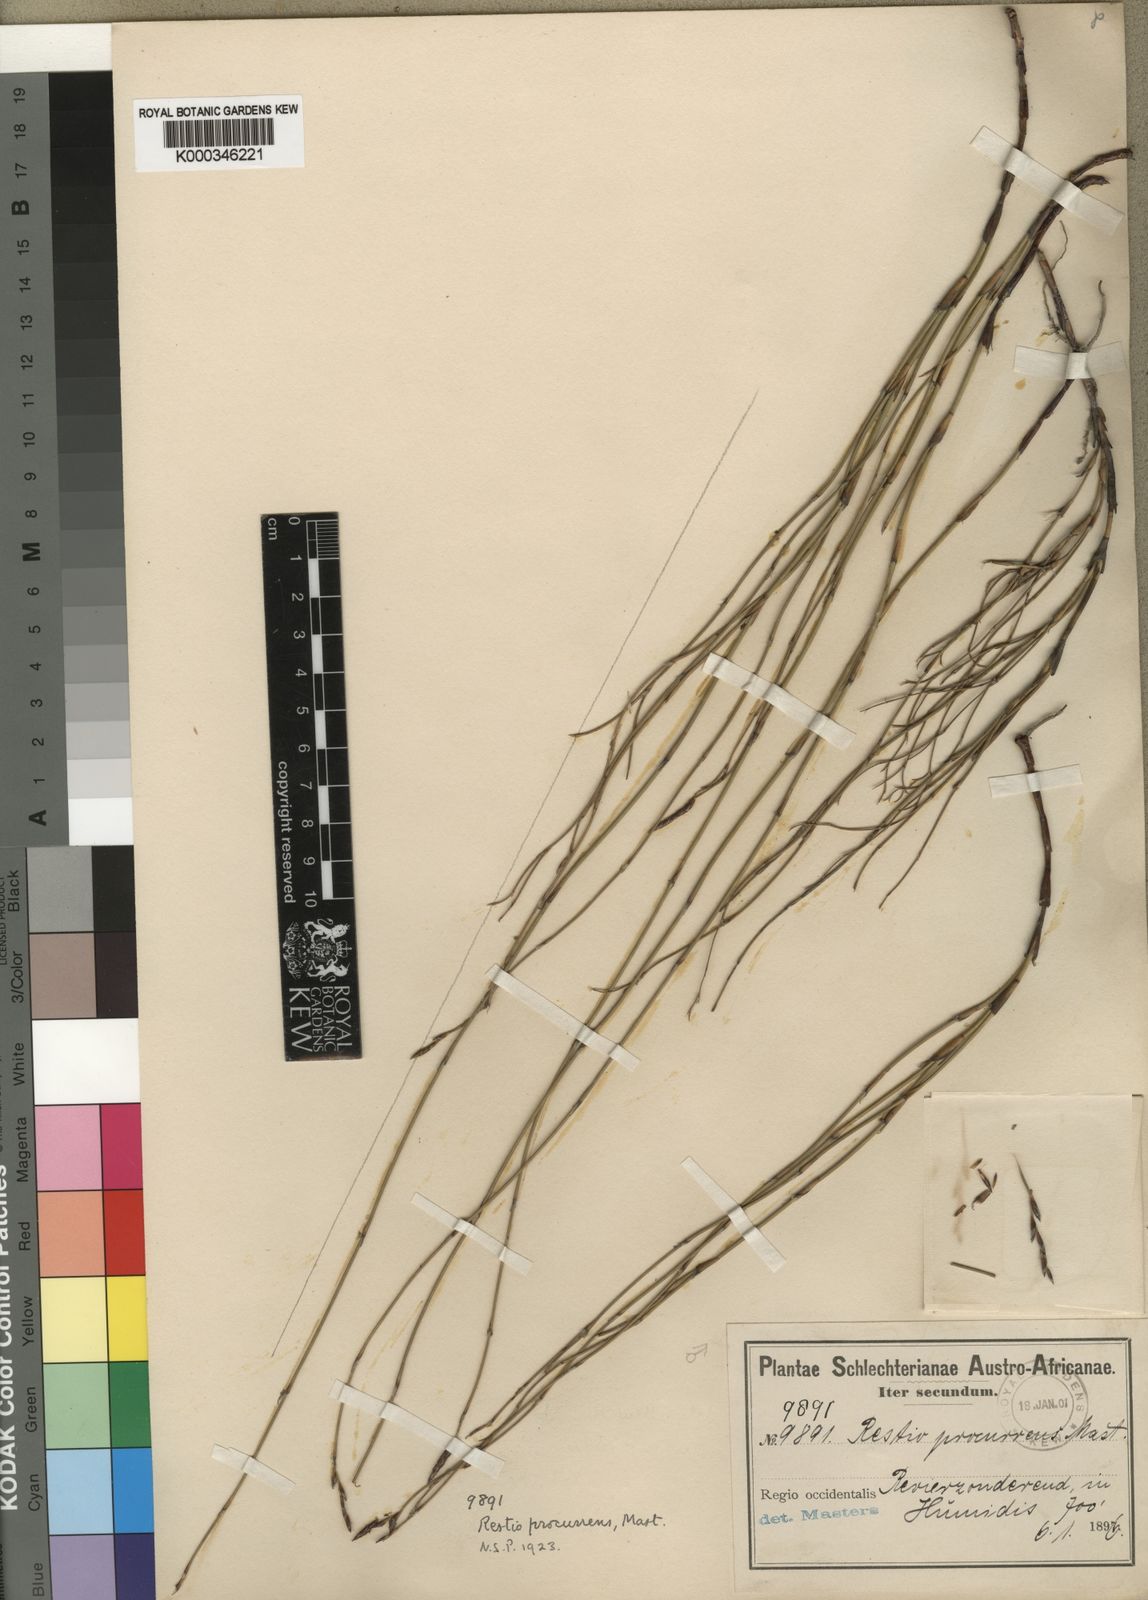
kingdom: Plantae
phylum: Tracheophyta
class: Liliopsida
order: Poales
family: Restionaceae
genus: Restio
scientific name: Restio
